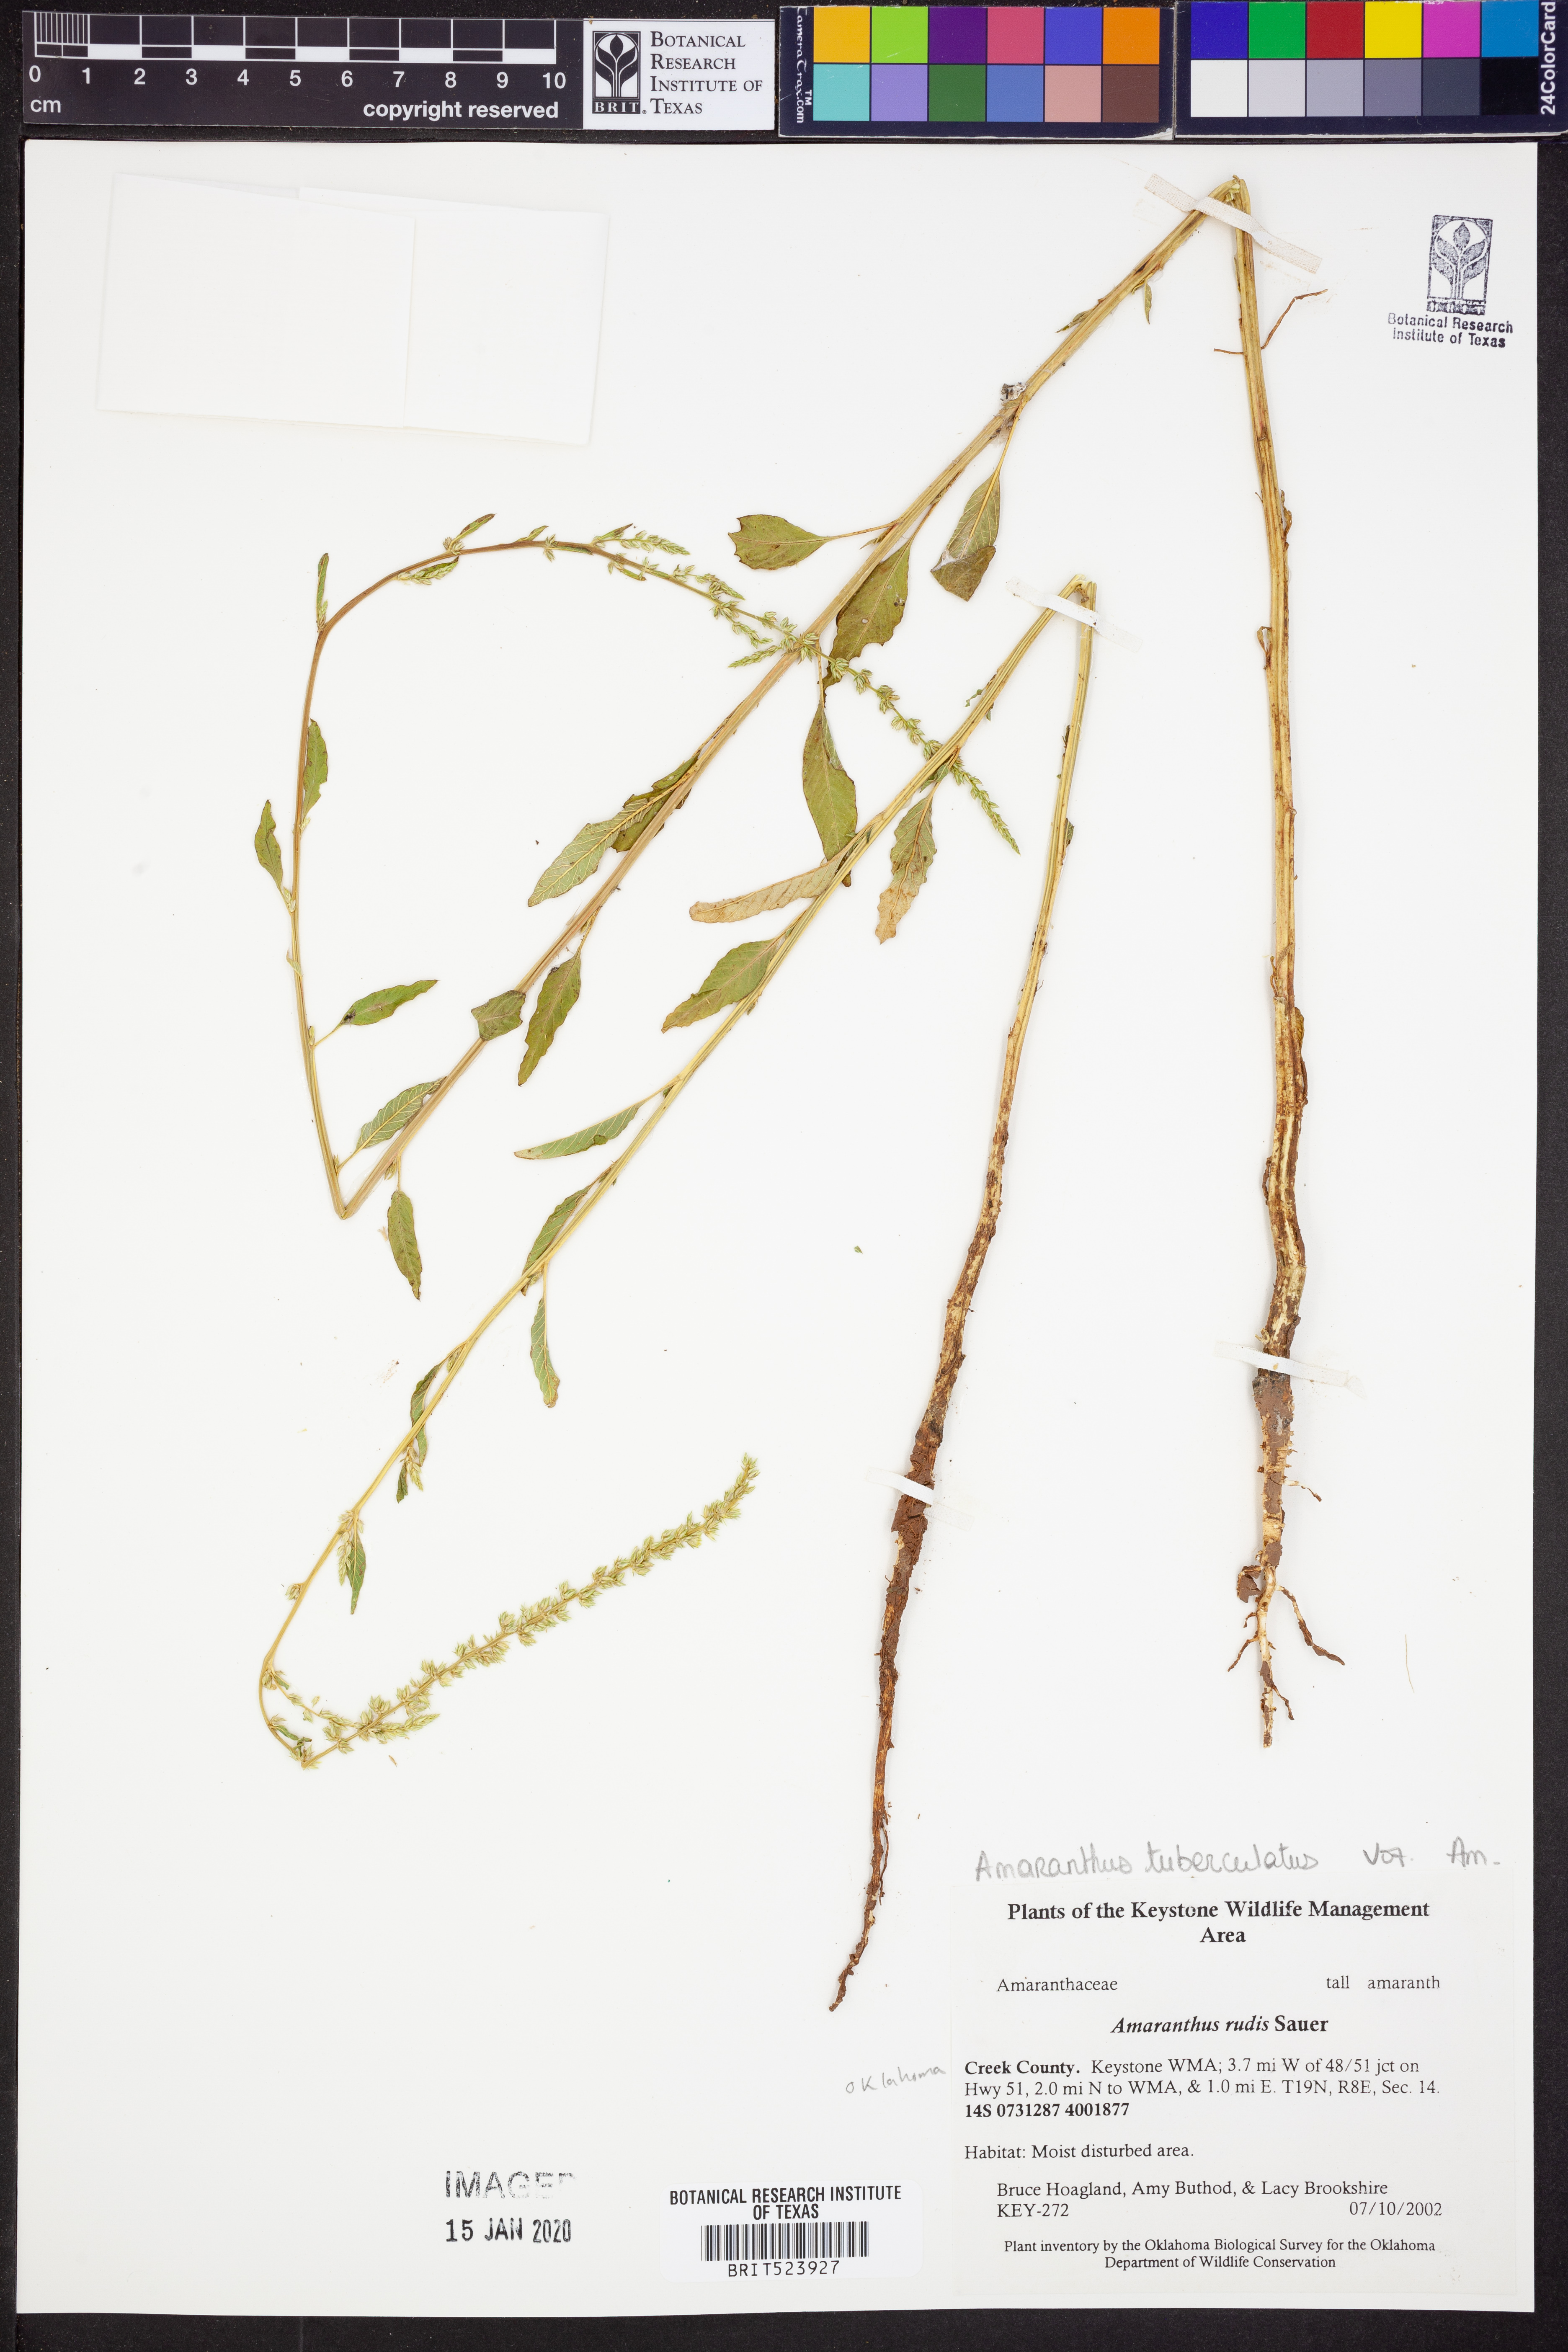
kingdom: Plantae
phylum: Tracheophyta
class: Magnoliopsida
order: Caryophyllales
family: Amaranthaceae
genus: Amaranthus
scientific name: Amaranthus tuberculatus
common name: Rough-fruit amaranth
